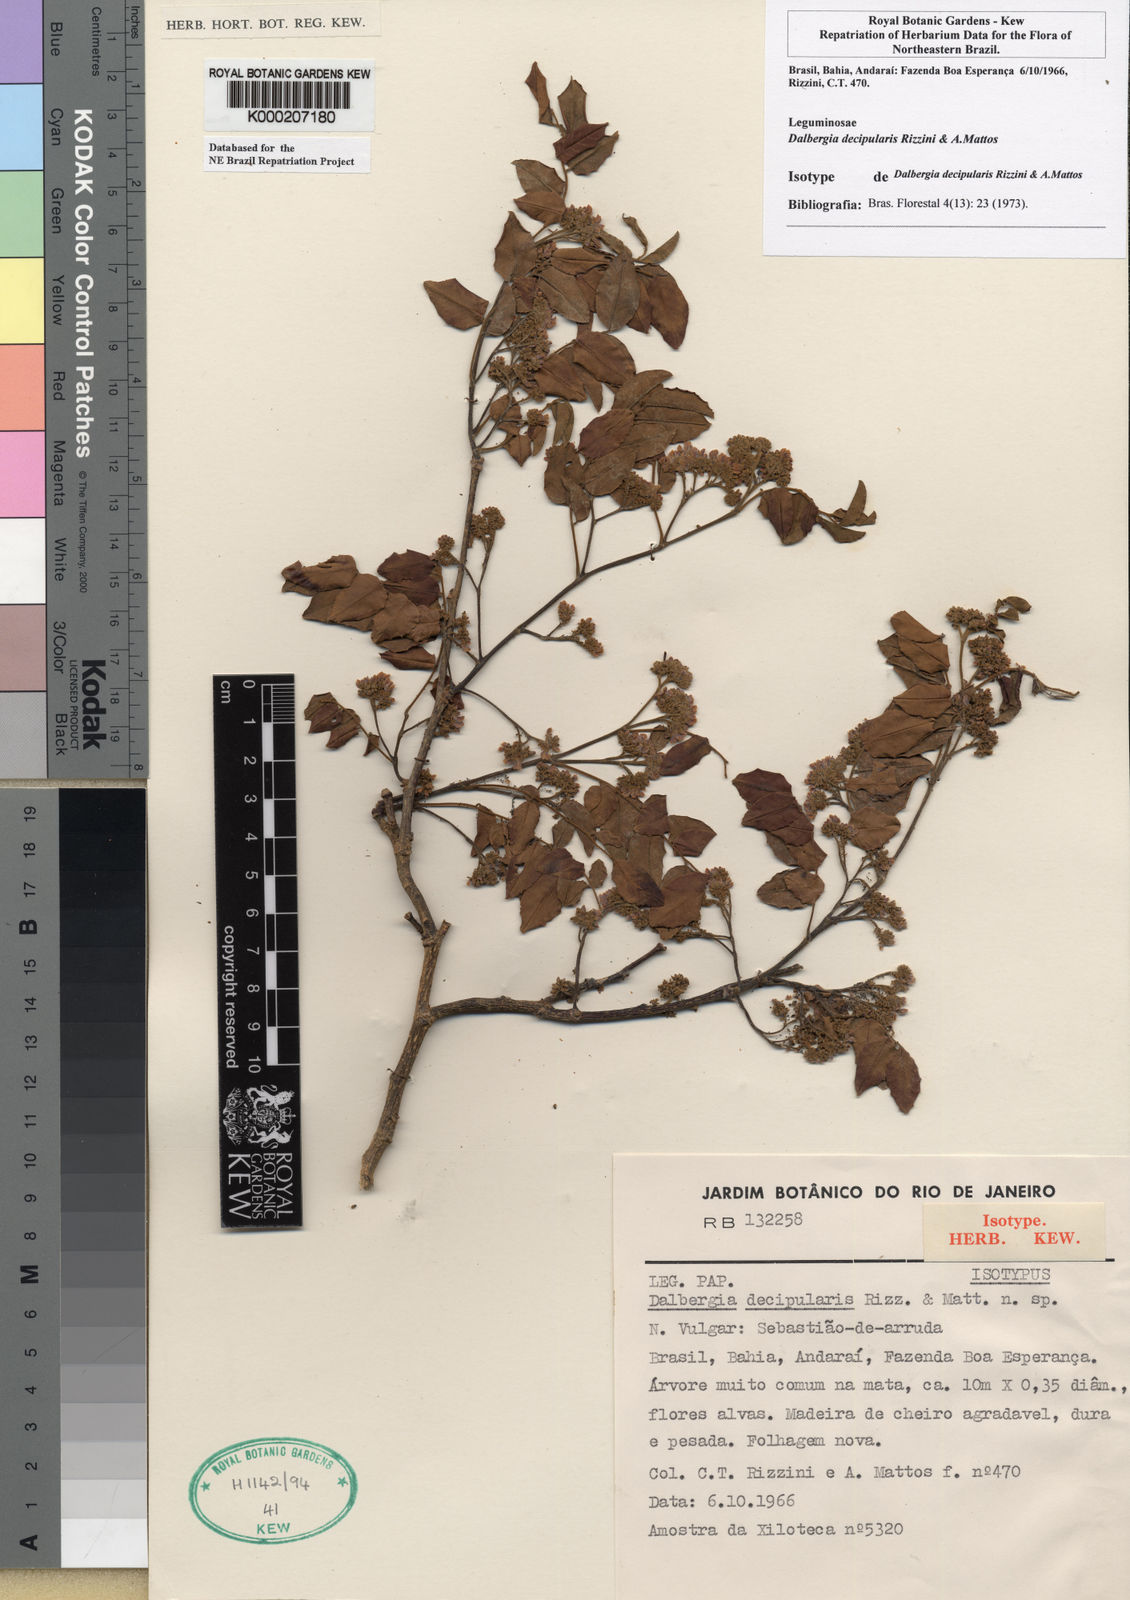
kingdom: Plantae
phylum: Tracheophyta
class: Magnoliopsida
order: Fabales
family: Fabaceae
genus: Dalbergia
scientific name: Dalbergia decipularis
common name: Brazilian tulipwood
